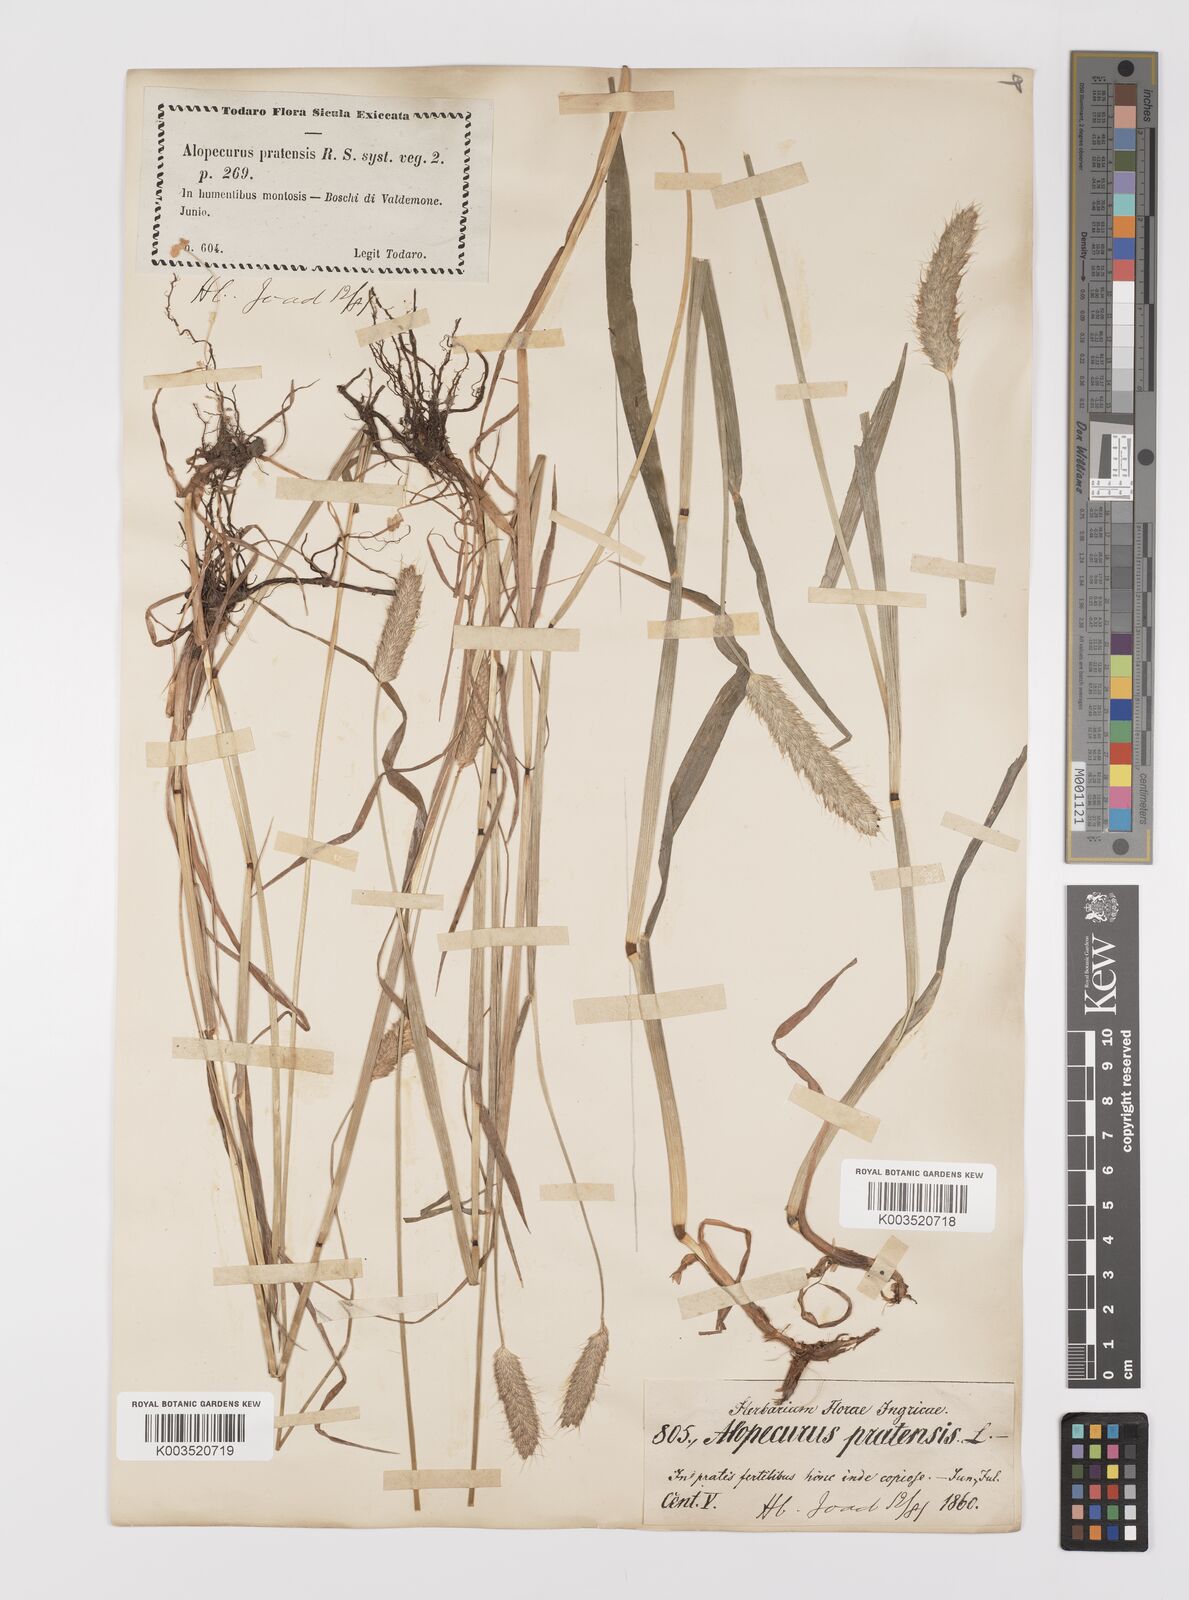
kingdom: Plantae
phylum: Tracheophyta
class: Liliopsida
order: Poales
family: Poaceae
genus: Alopecurus
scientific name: Alopecurus pratensis
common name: Meadow foxtail
